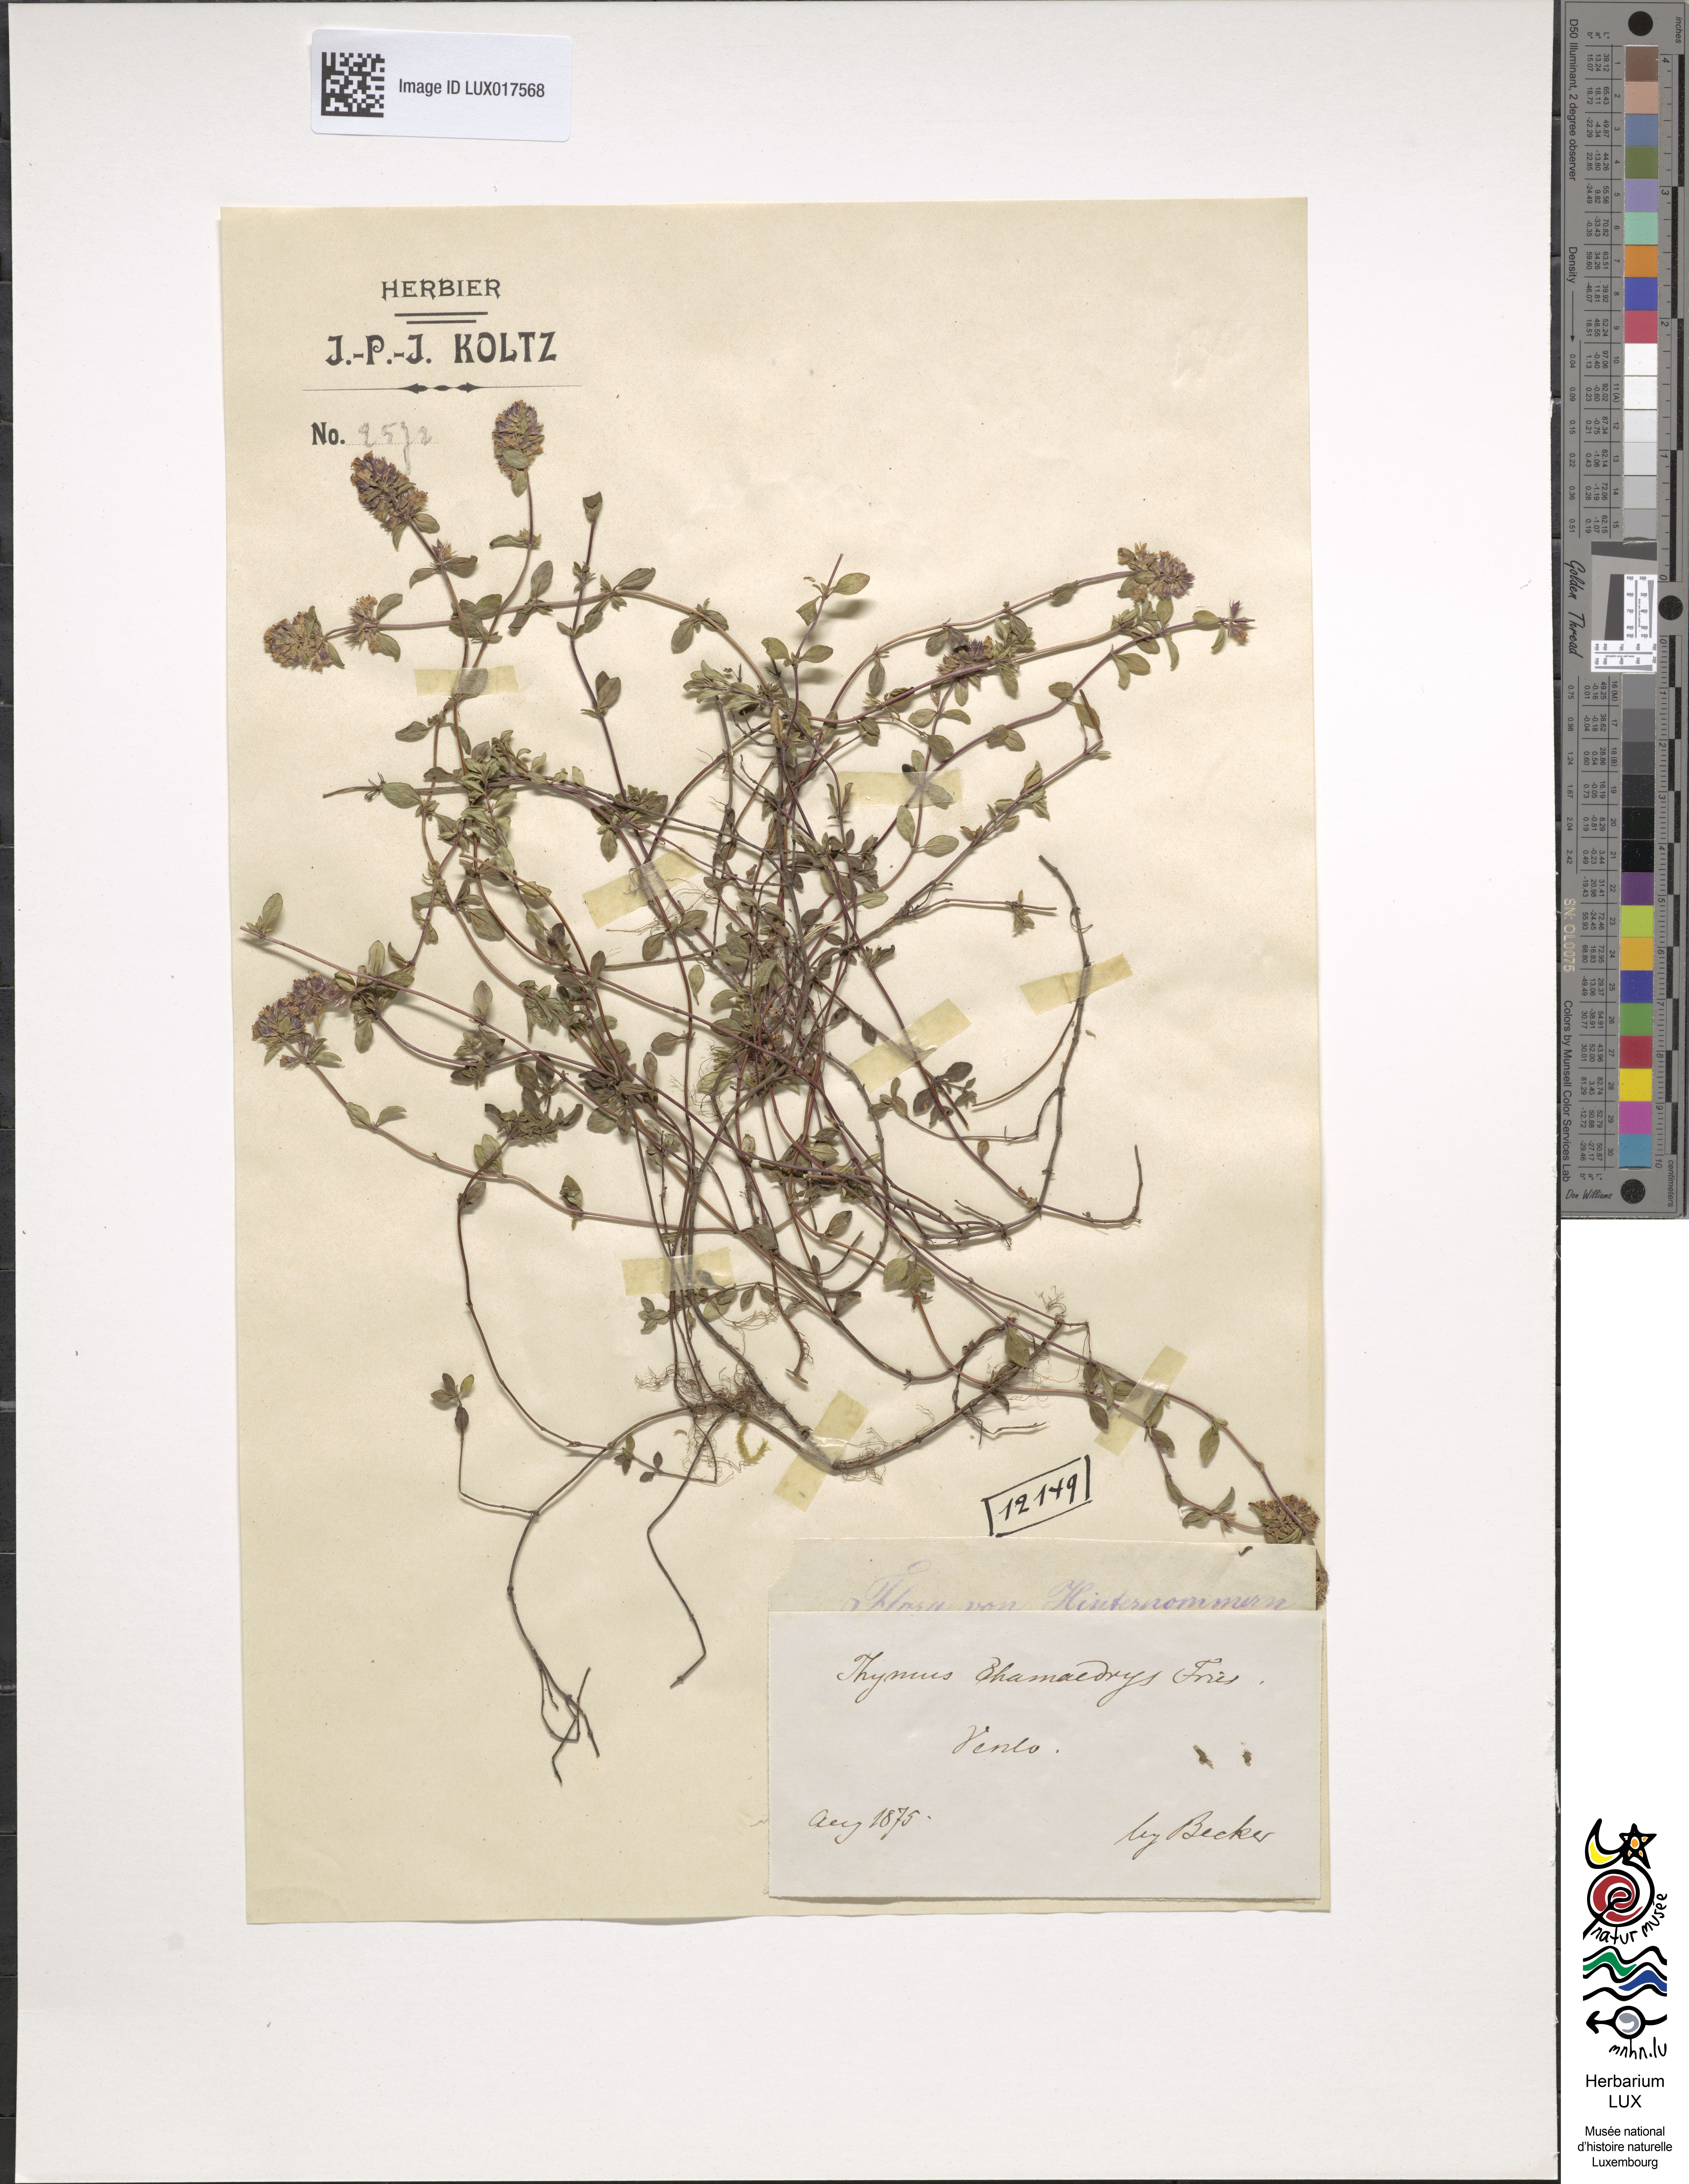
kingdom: Plantae
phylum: Tracheophyta
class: Magnoliopsida
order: Lamiales
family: Lamiaceae
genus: Thymus
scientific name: Thymus pulegioides
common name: Large thyme
